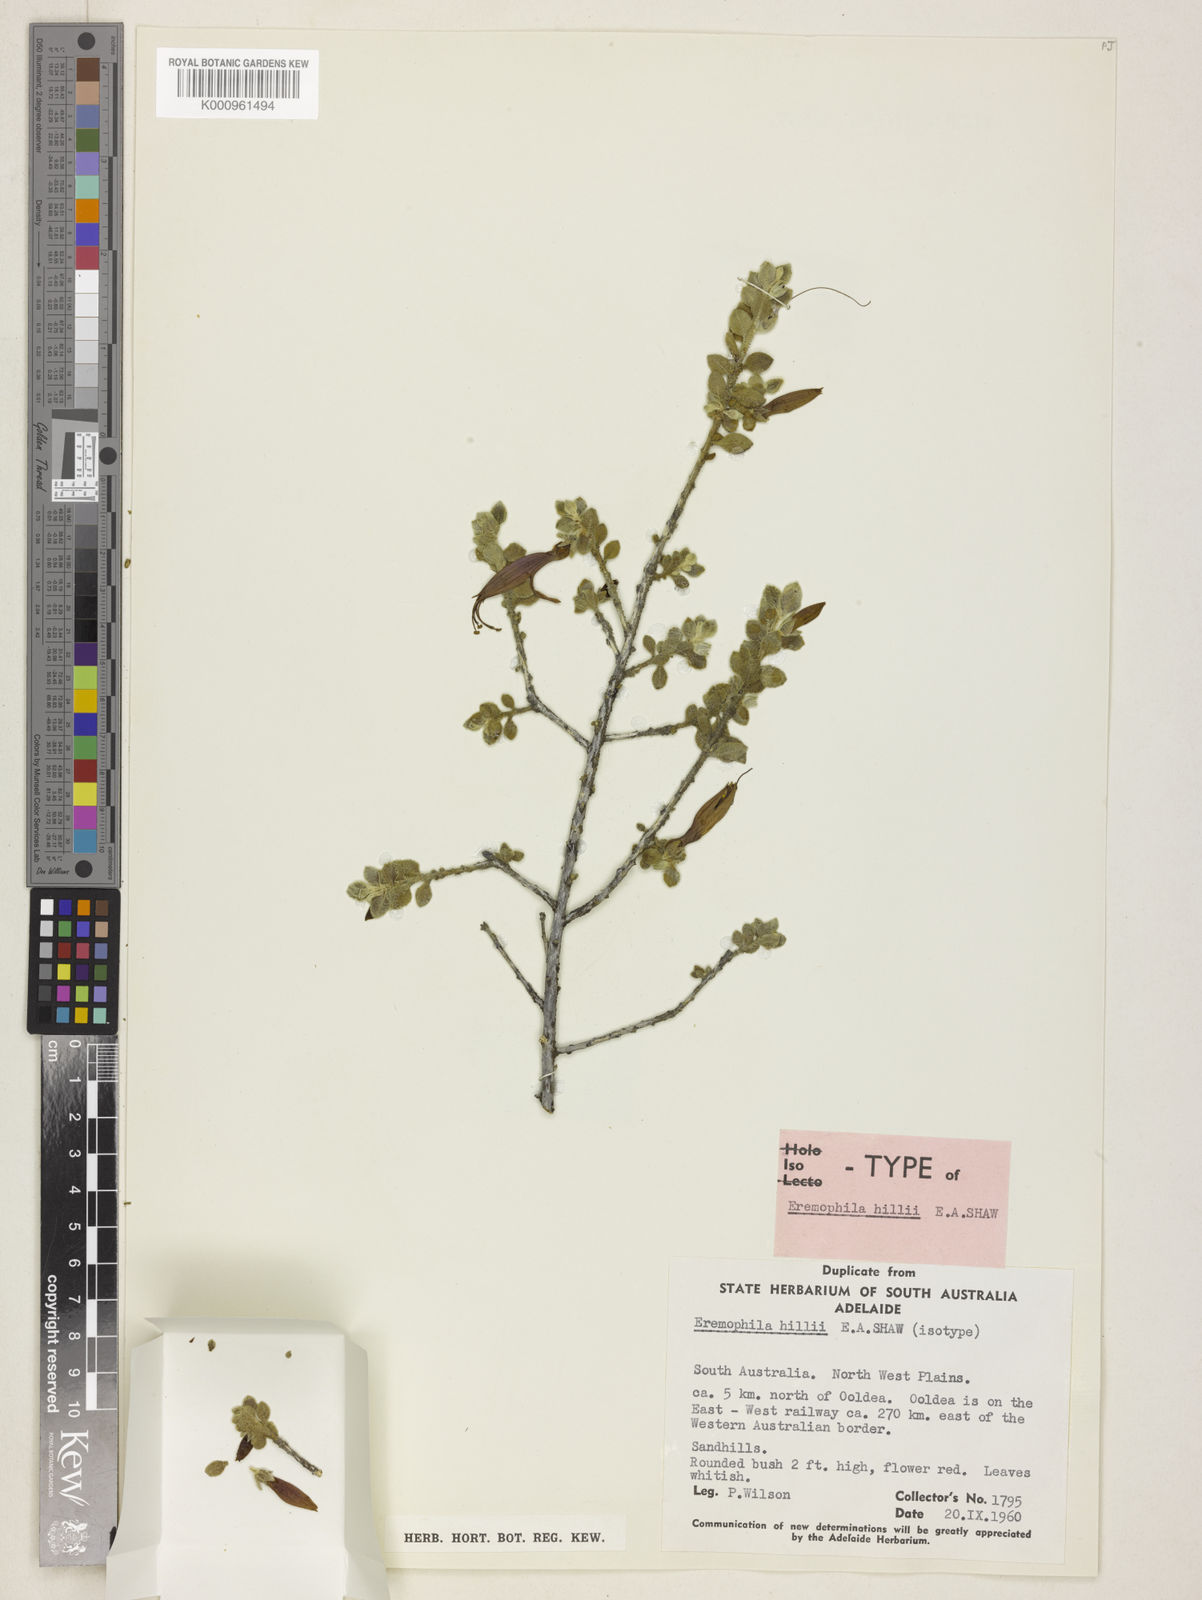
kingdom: Plantae
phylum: Tracheophyta
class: Magnoliopsida
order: Lamiales
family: Scrophulariaceae
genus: Eremophila
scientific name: Eremophila hillii
